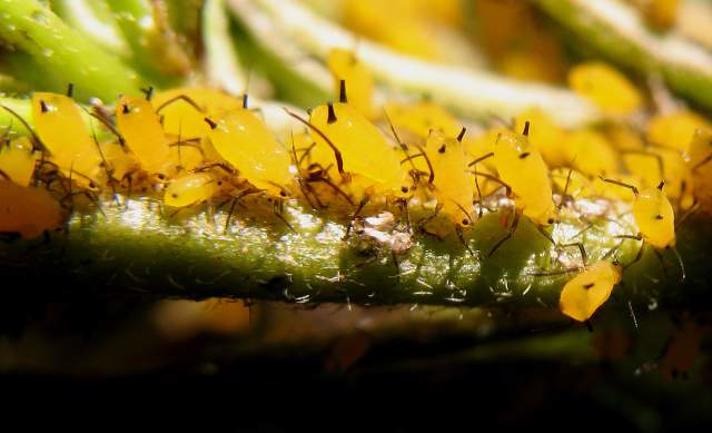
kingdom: Animalia
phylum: Arthropoda
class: Insecta
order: Hemiptera
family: Aphididae
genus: Aphis
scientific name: Aphis nerii
